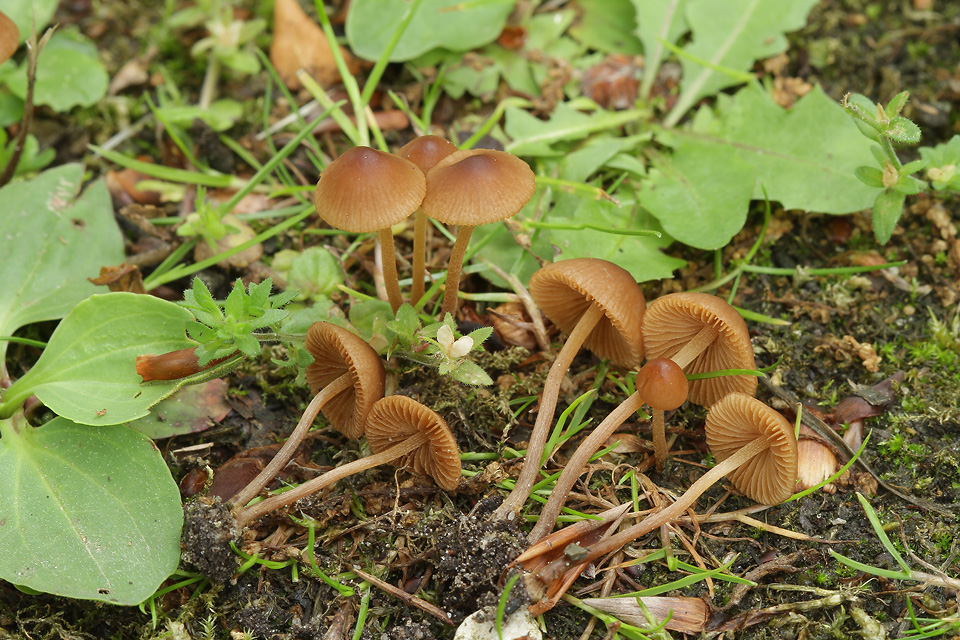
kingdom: Fungi
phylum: Basidiomycota
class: Agaricomycetes
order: Agaricales
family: Bolbitiaceae
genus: Conocybe
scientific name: Conocybe juniana
